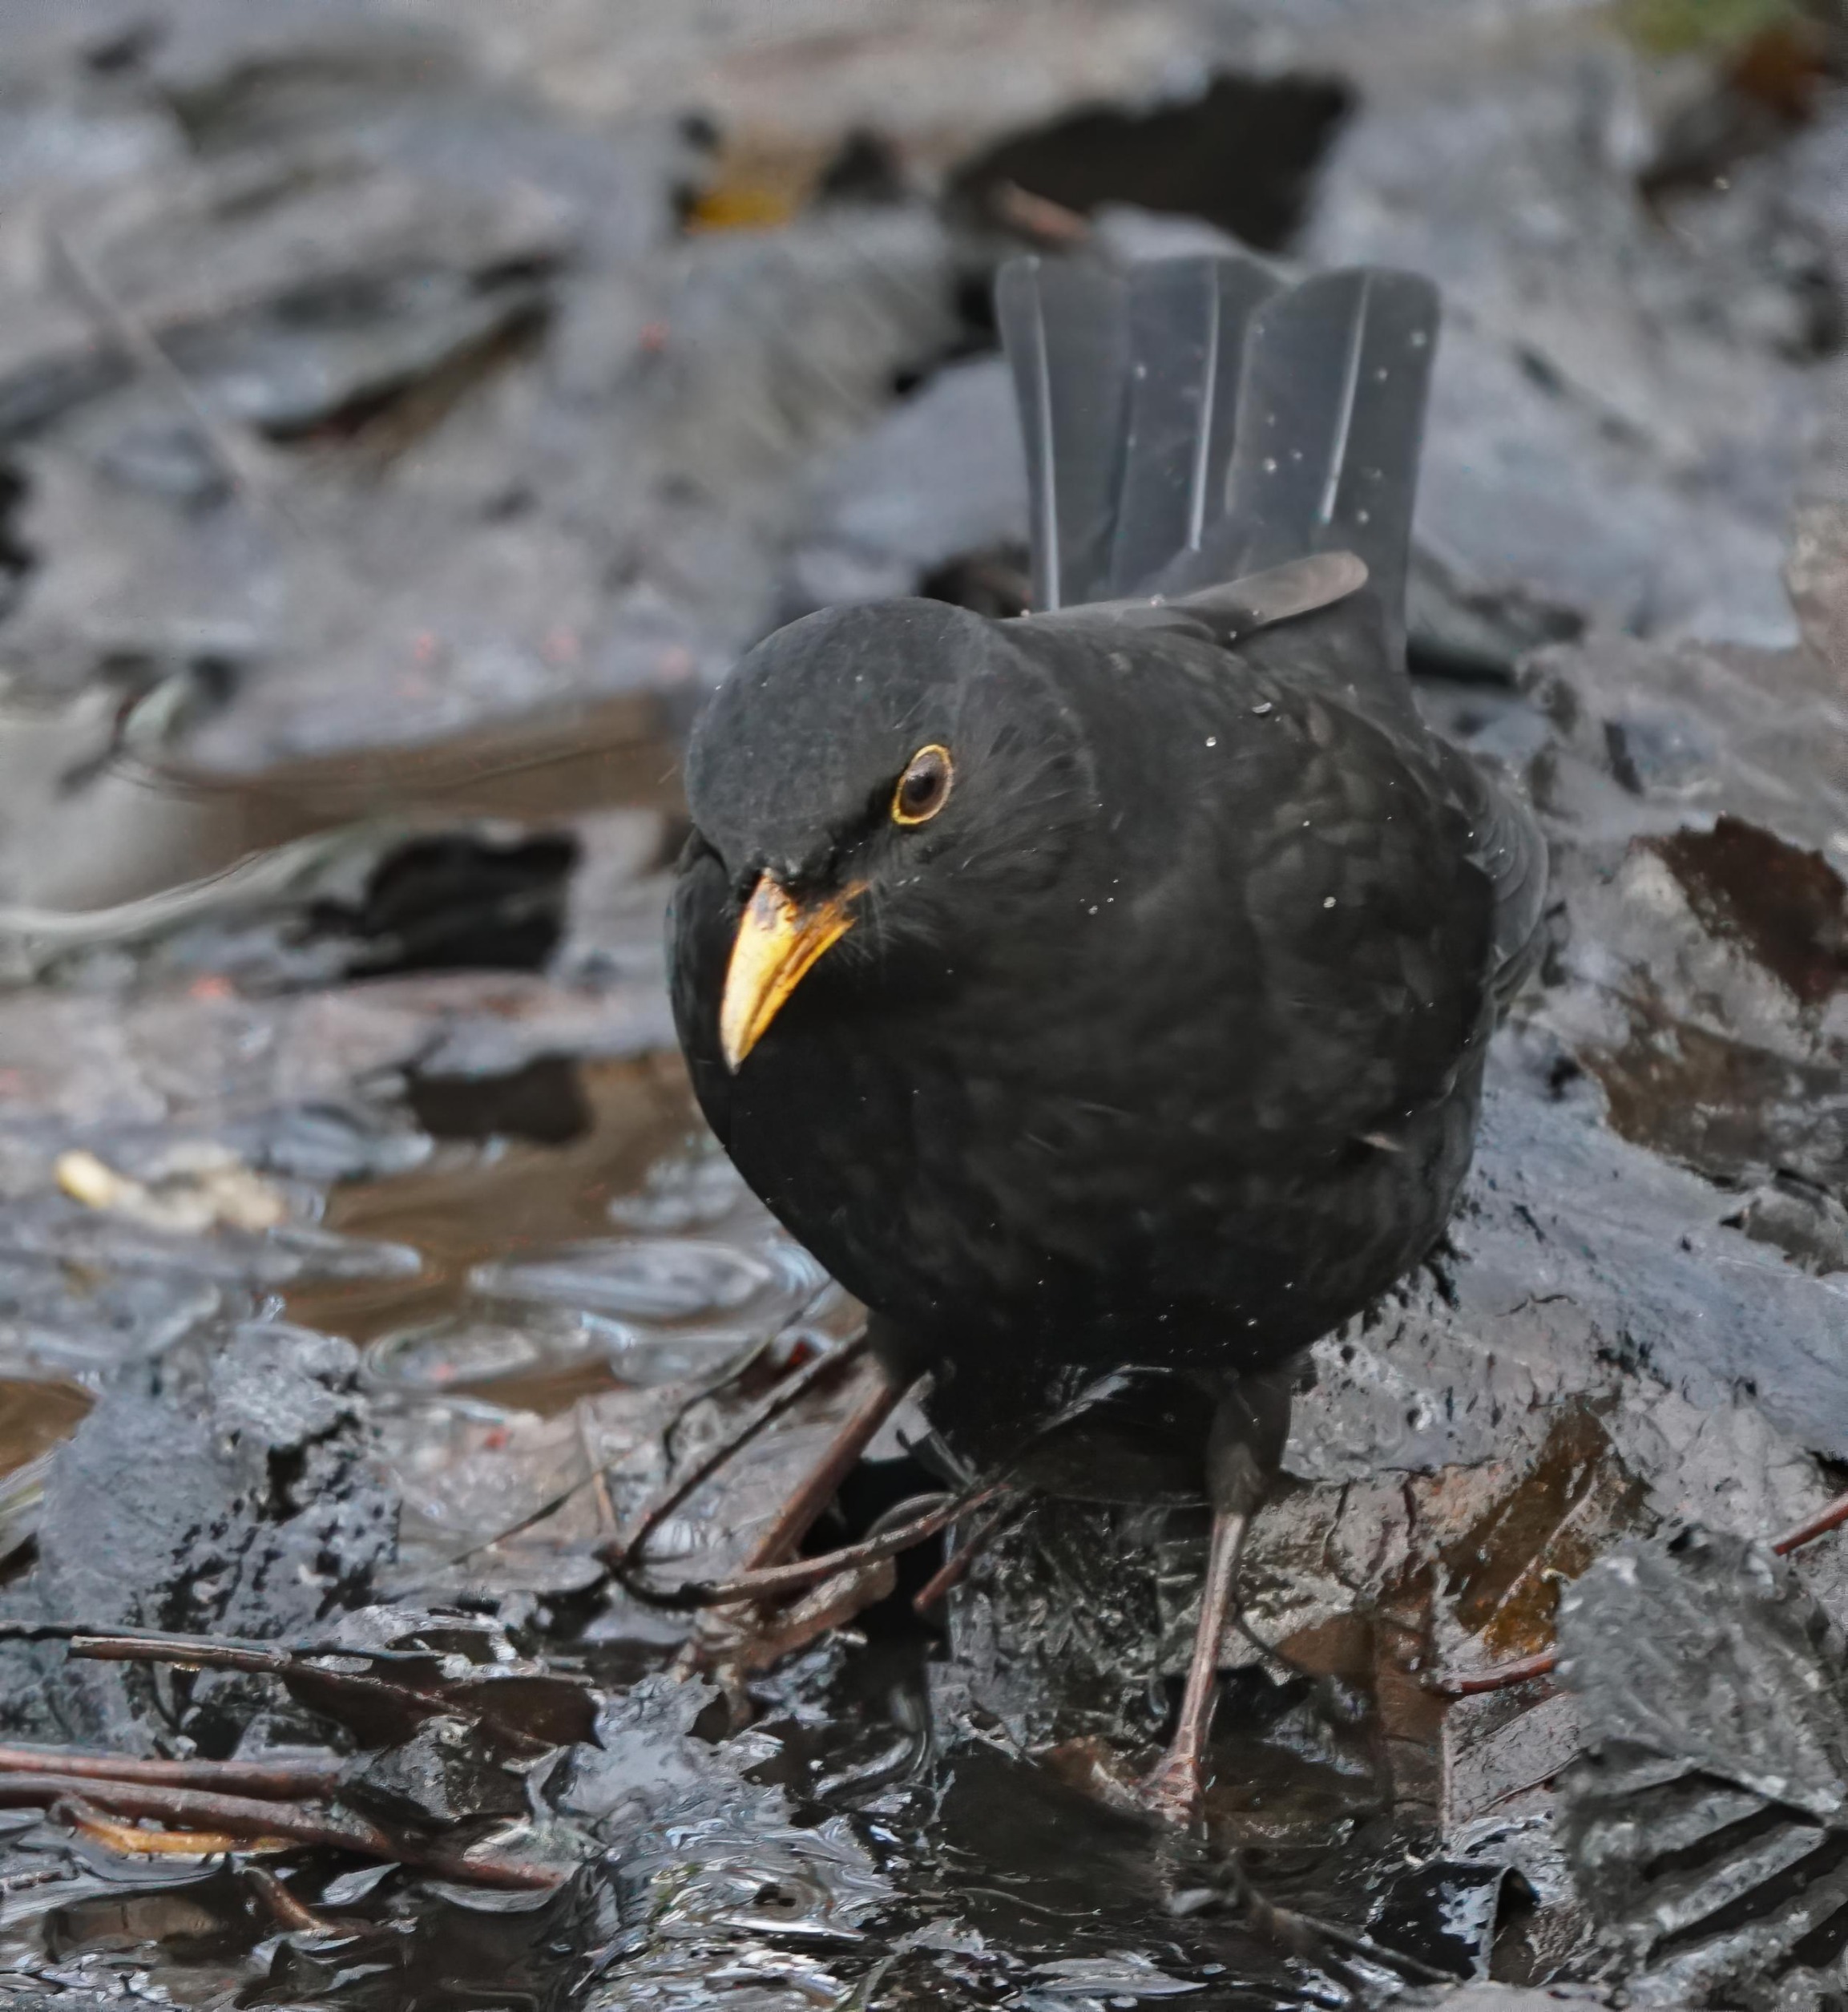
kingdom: Animalia
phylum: Chordata
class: Aves
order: Passeriformes
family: Turdidae
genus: Turdus
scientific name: Turdus merula
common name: Solsort
